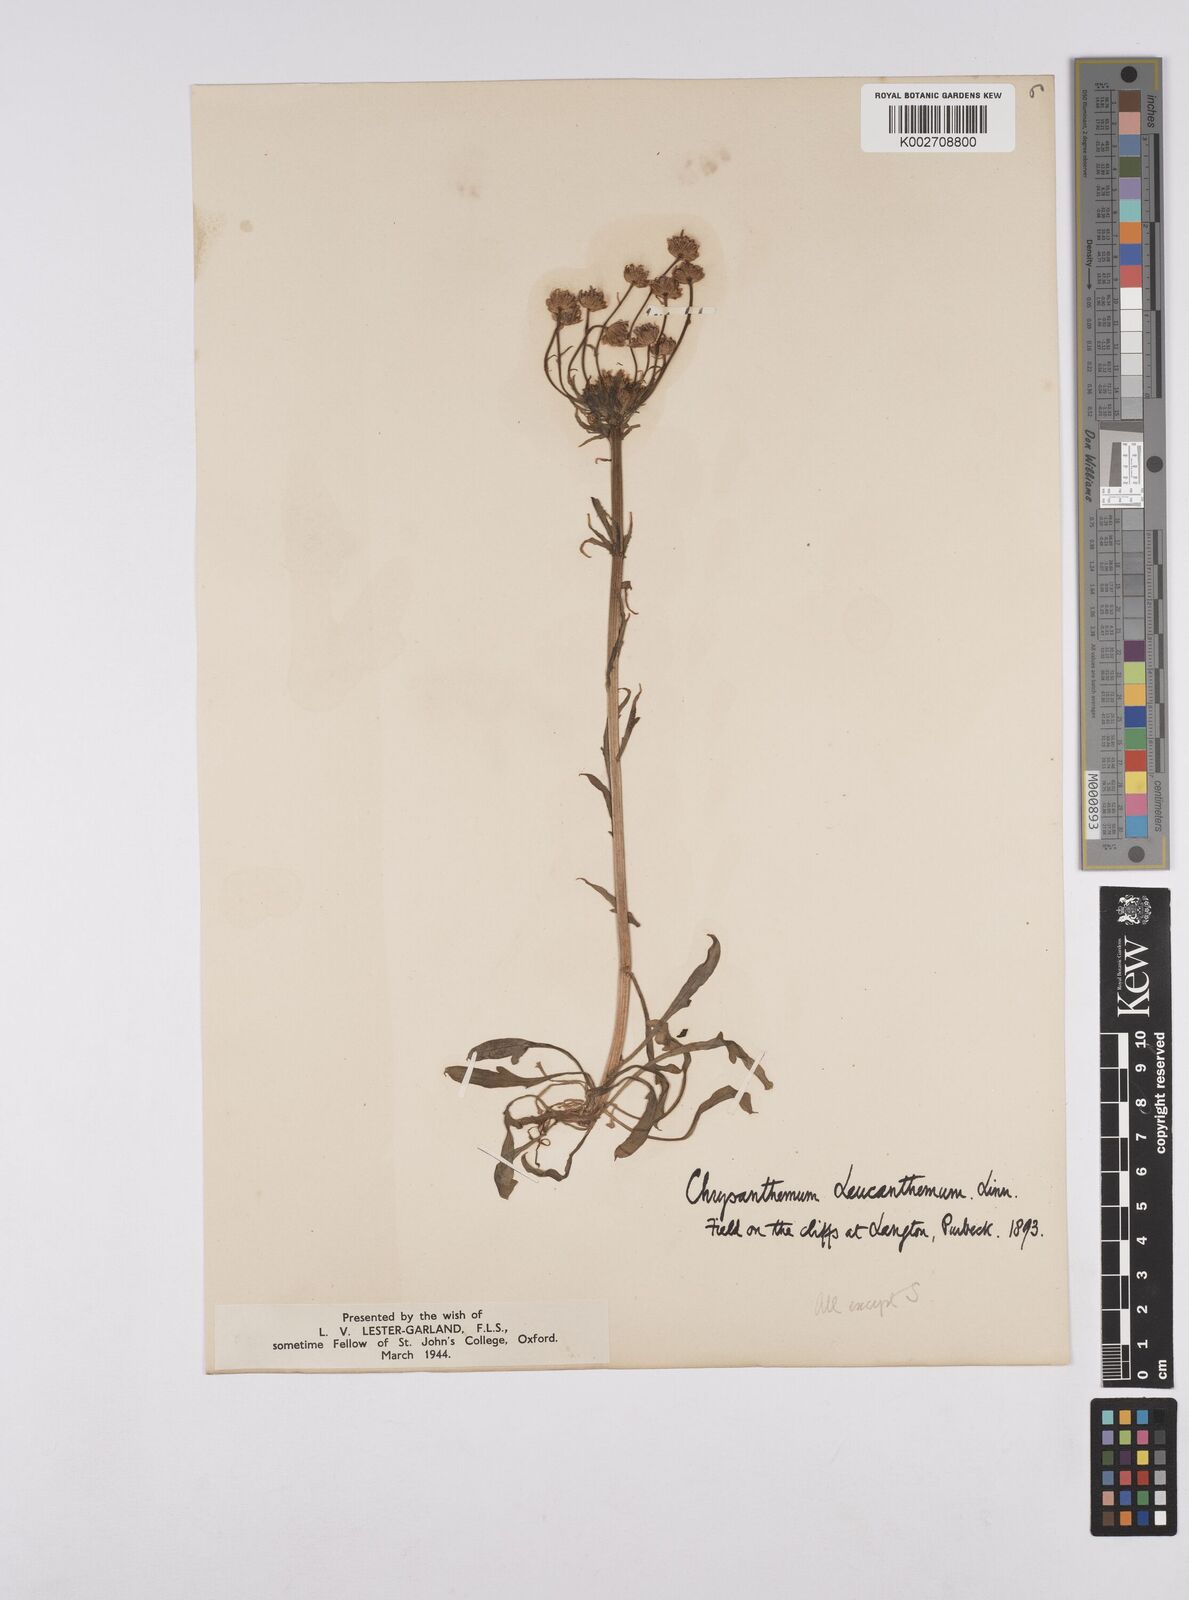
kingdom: Plantae
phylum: Tracheophyta
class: Magnoliopsida
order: Asterales
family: Asteraceae
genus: Leucanthemum
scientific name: Leucanthemum vulgare
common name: Oxeye daisy
